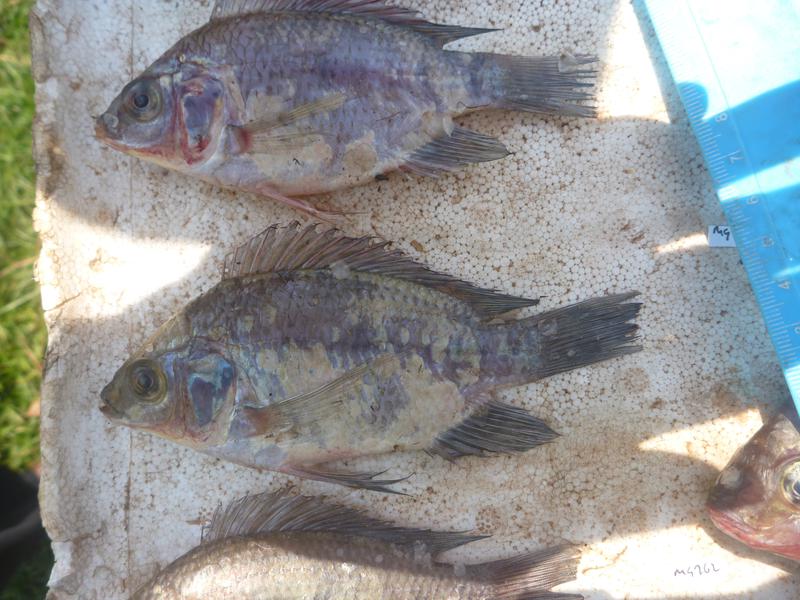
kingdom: Animalia
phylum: Chordata
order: Perciformes
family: Cichlidae
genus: Oreochromis
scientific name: Oreochromis upembae
